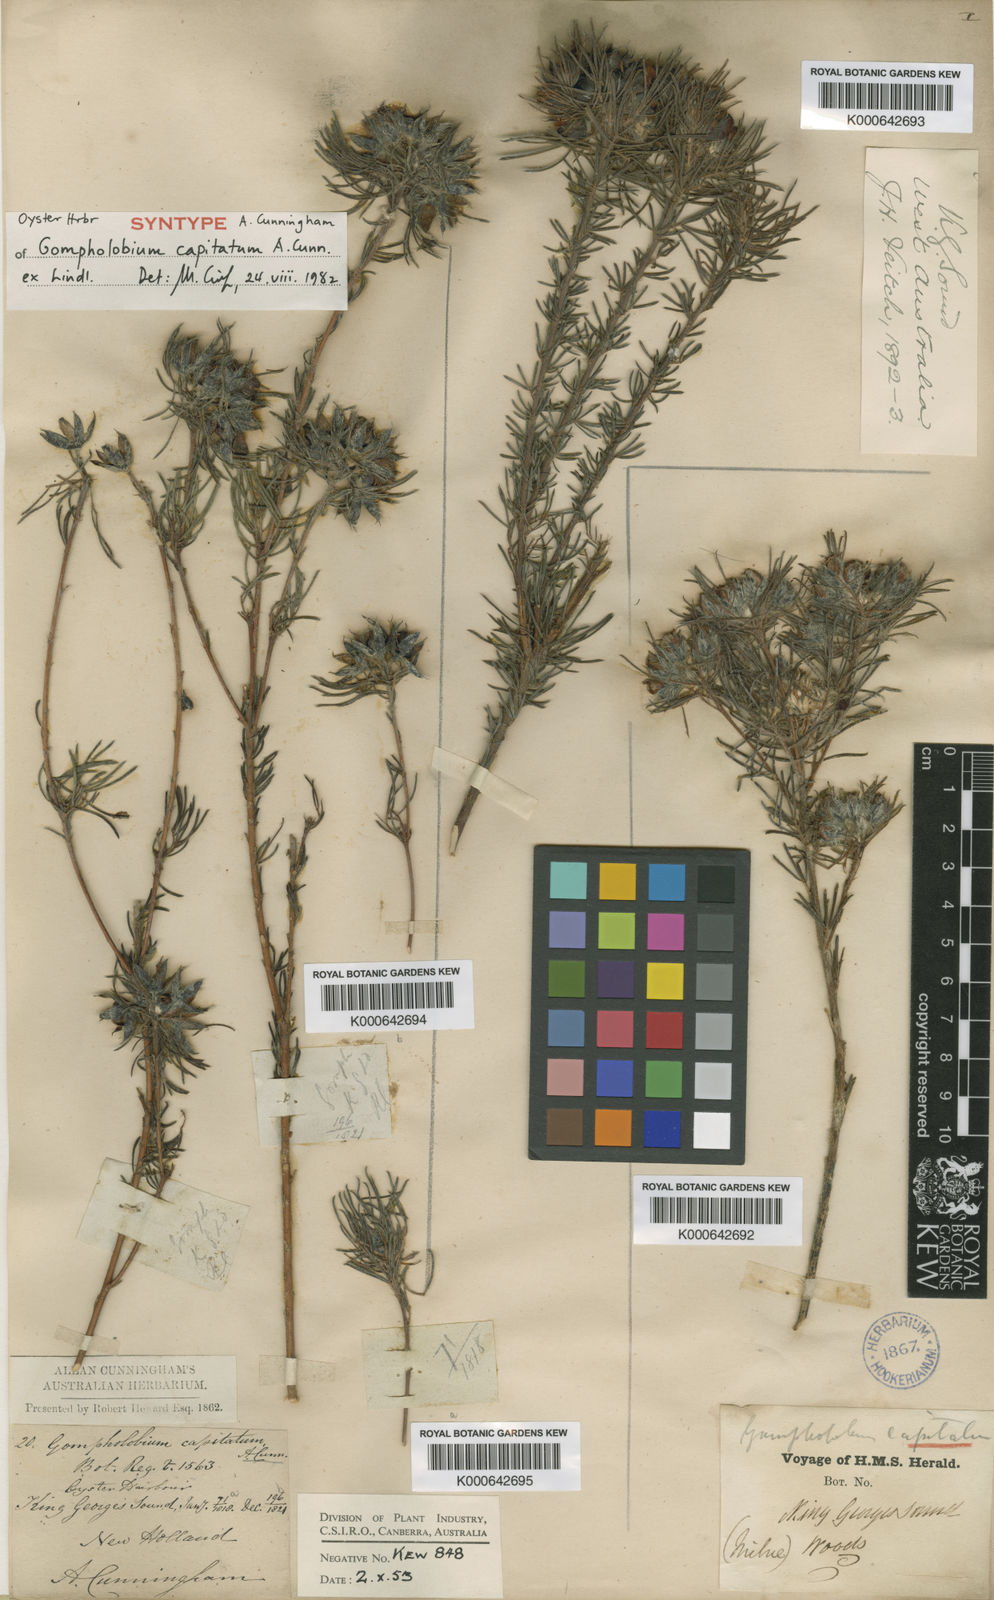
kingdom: Plantae
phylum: Tracheophyta
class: Magnoliopsida
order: Fabales
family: Fabaceae
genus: Gompholobium
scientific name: Gompholobium
